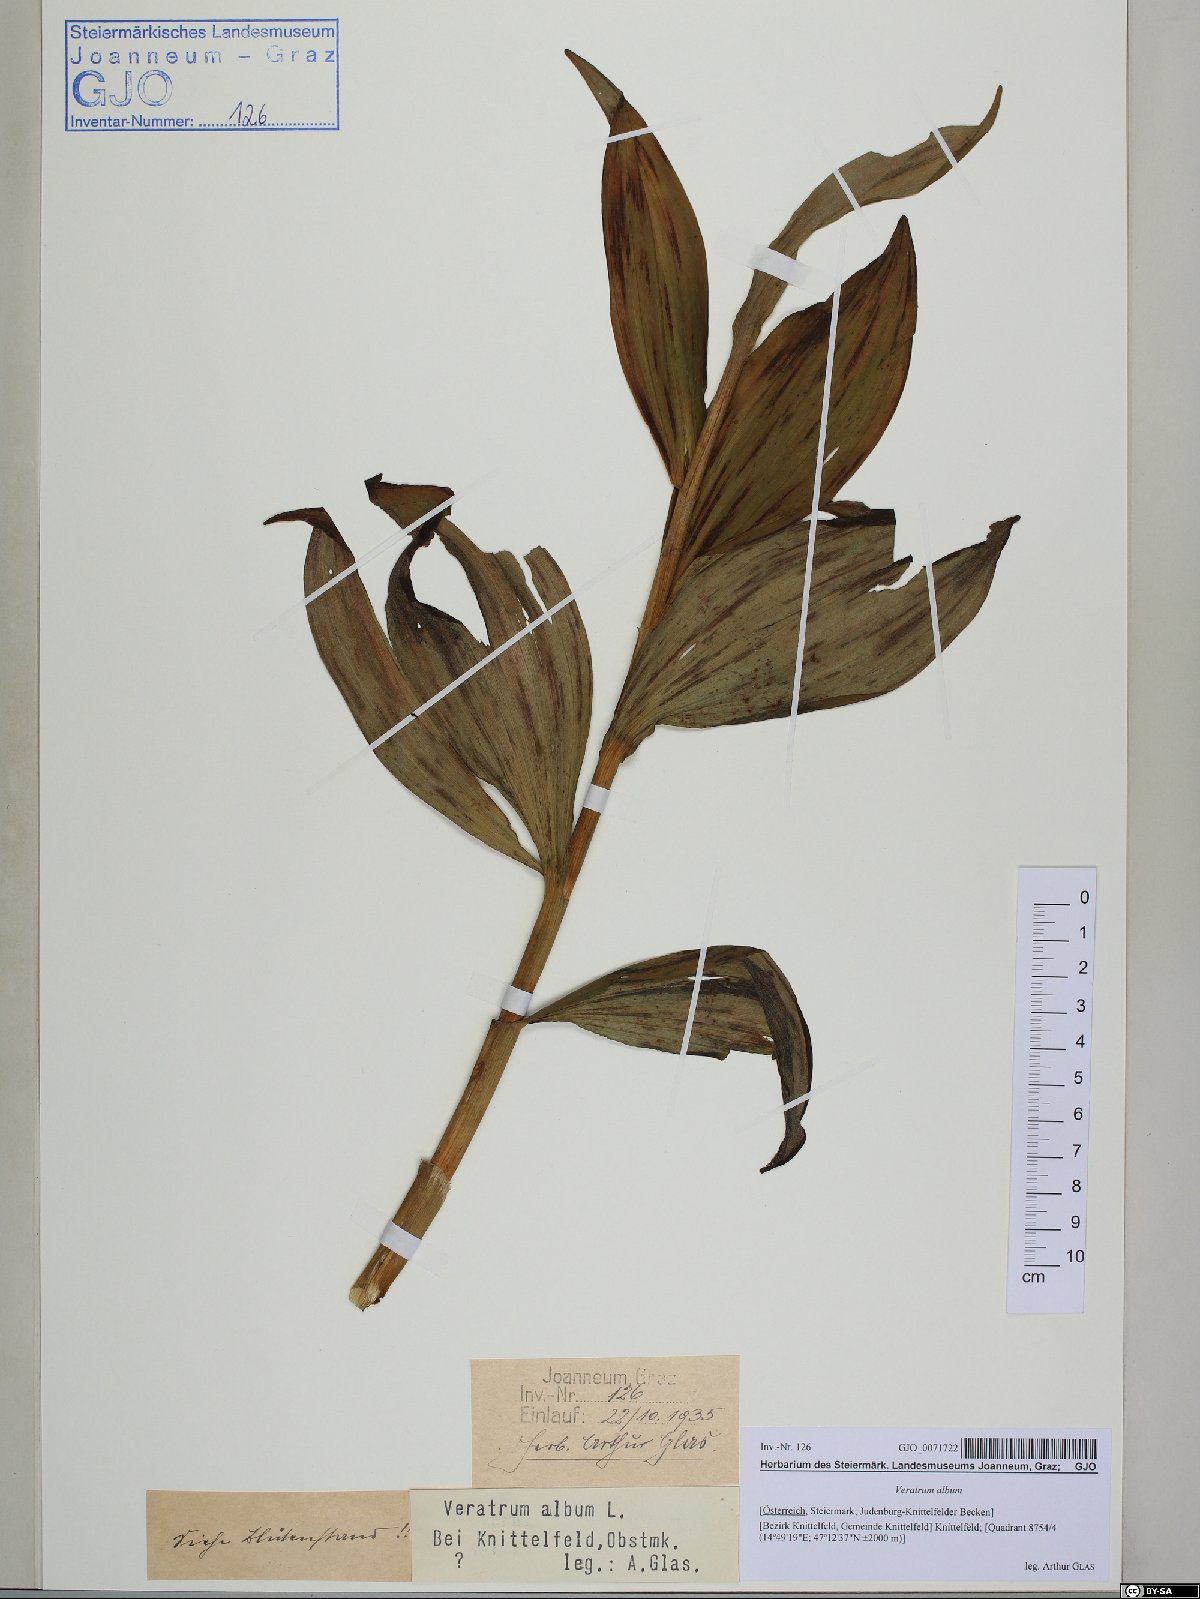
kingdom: Plantae
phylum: Tracheophyta
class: Liliopsida
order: Liliales
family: Melanthiaceae
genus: Veratrum
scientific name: Veratrum album
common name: White veratrum
